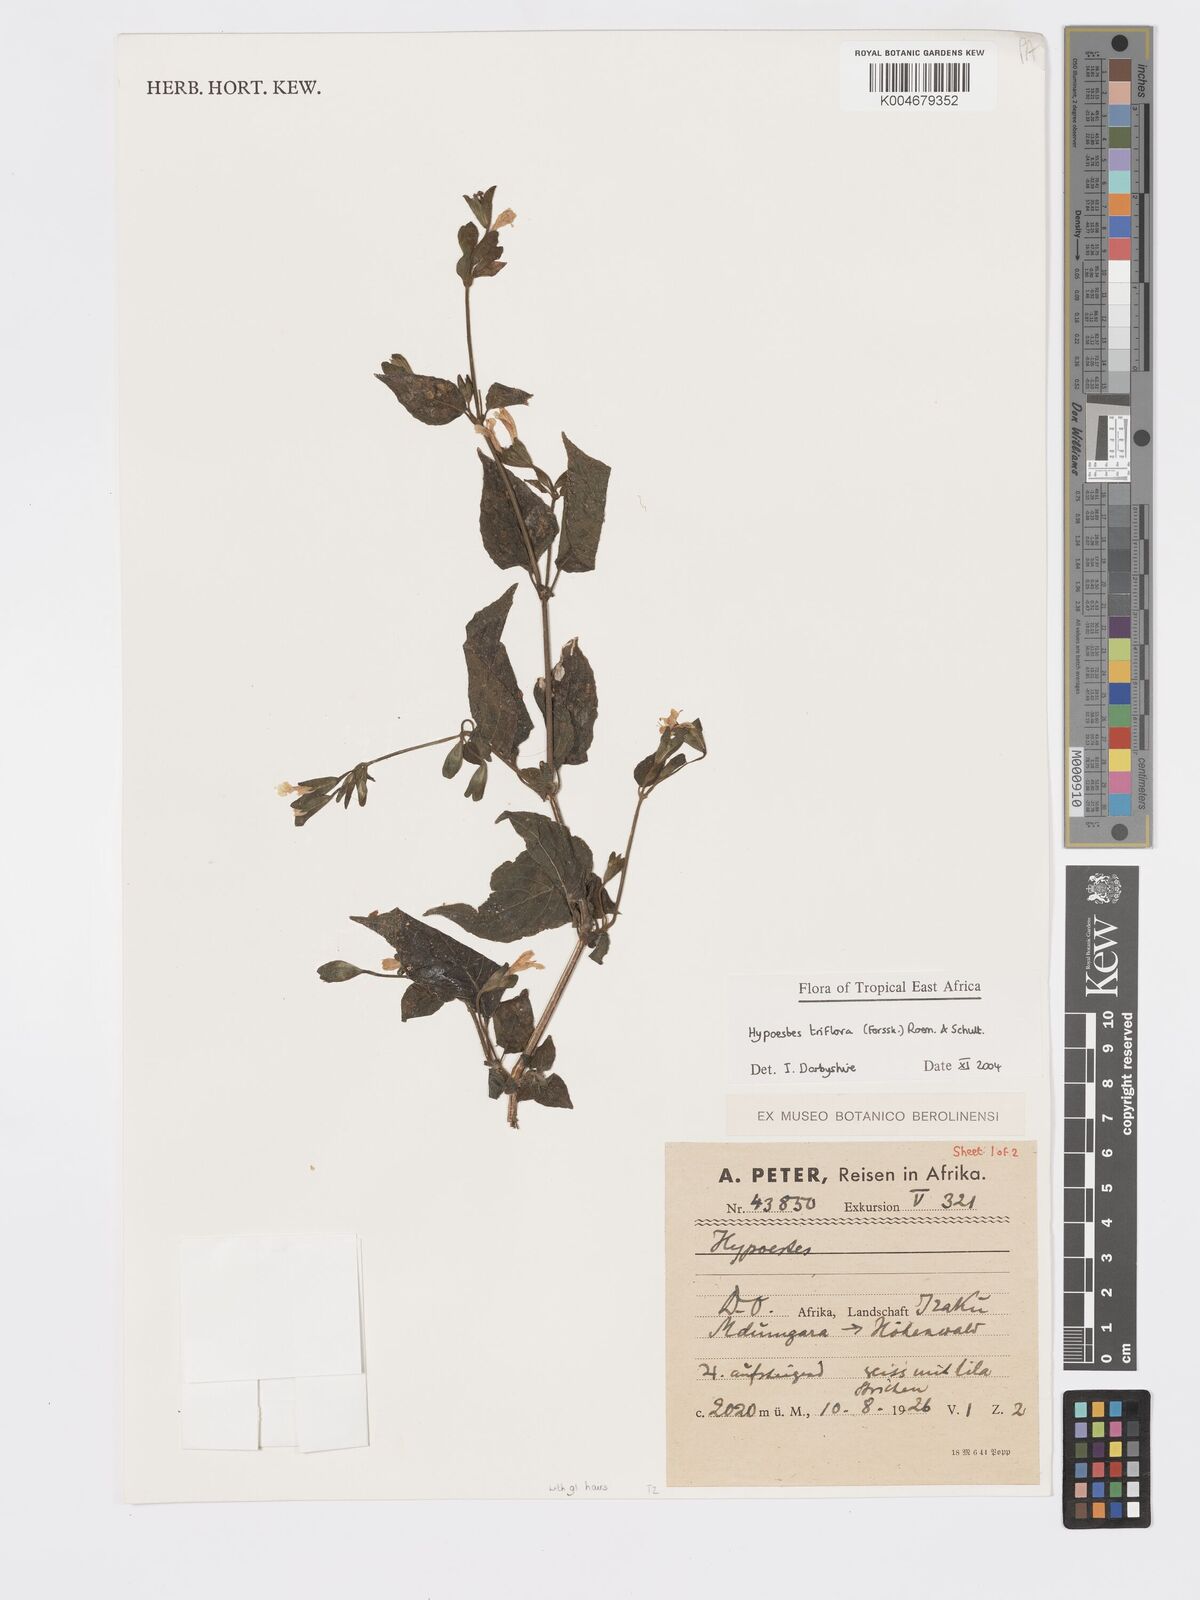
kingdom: Plantae
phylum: Tracheophyta
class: Magnoliopsida
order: Lamiales
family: Acanthaceae
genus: Hypoestes
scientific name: Hypoestes triflora
